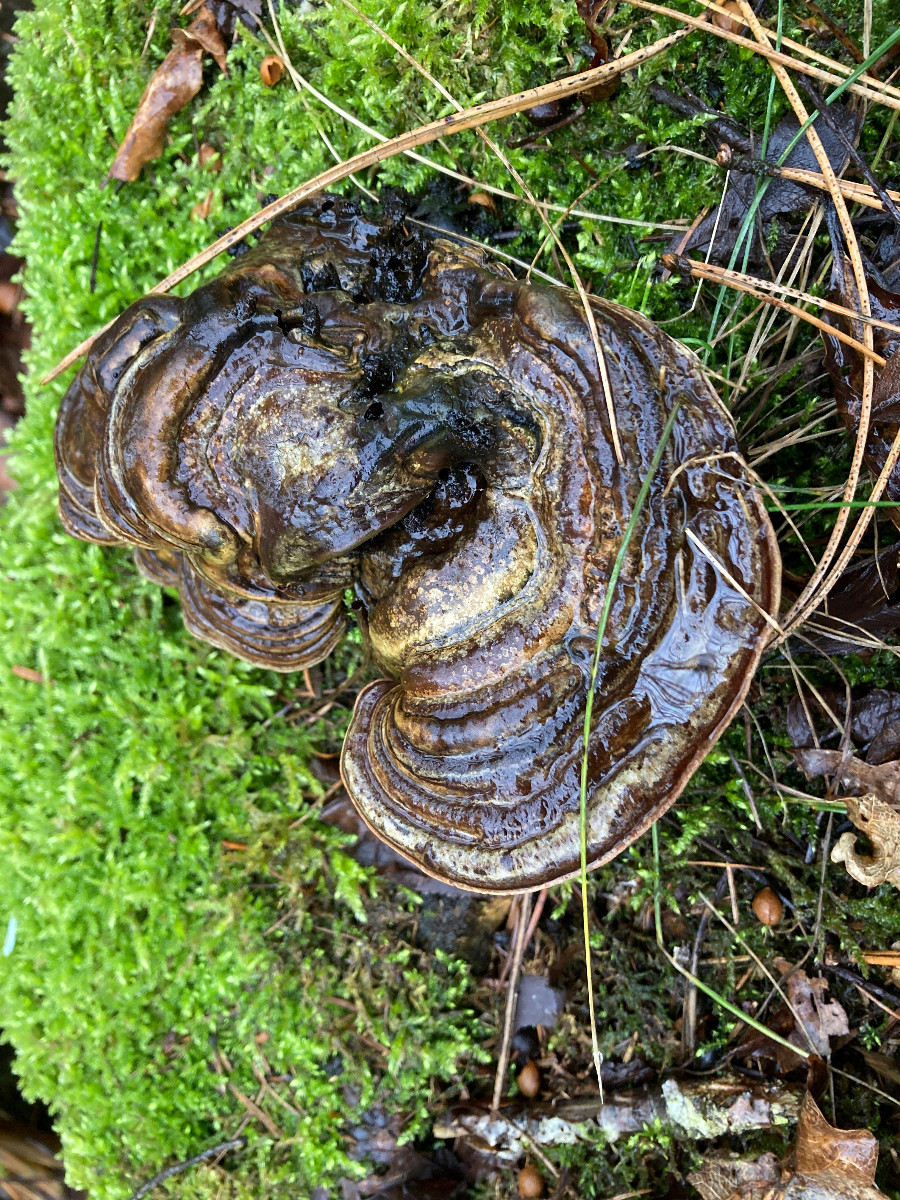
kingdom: Fungi
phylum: Basidiomycota
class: Agaricomycetes
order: Polyporales
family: Polyporaceae
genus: Ganoderma
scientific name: Ganoderma applanatum
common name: flad lakporesvamp
